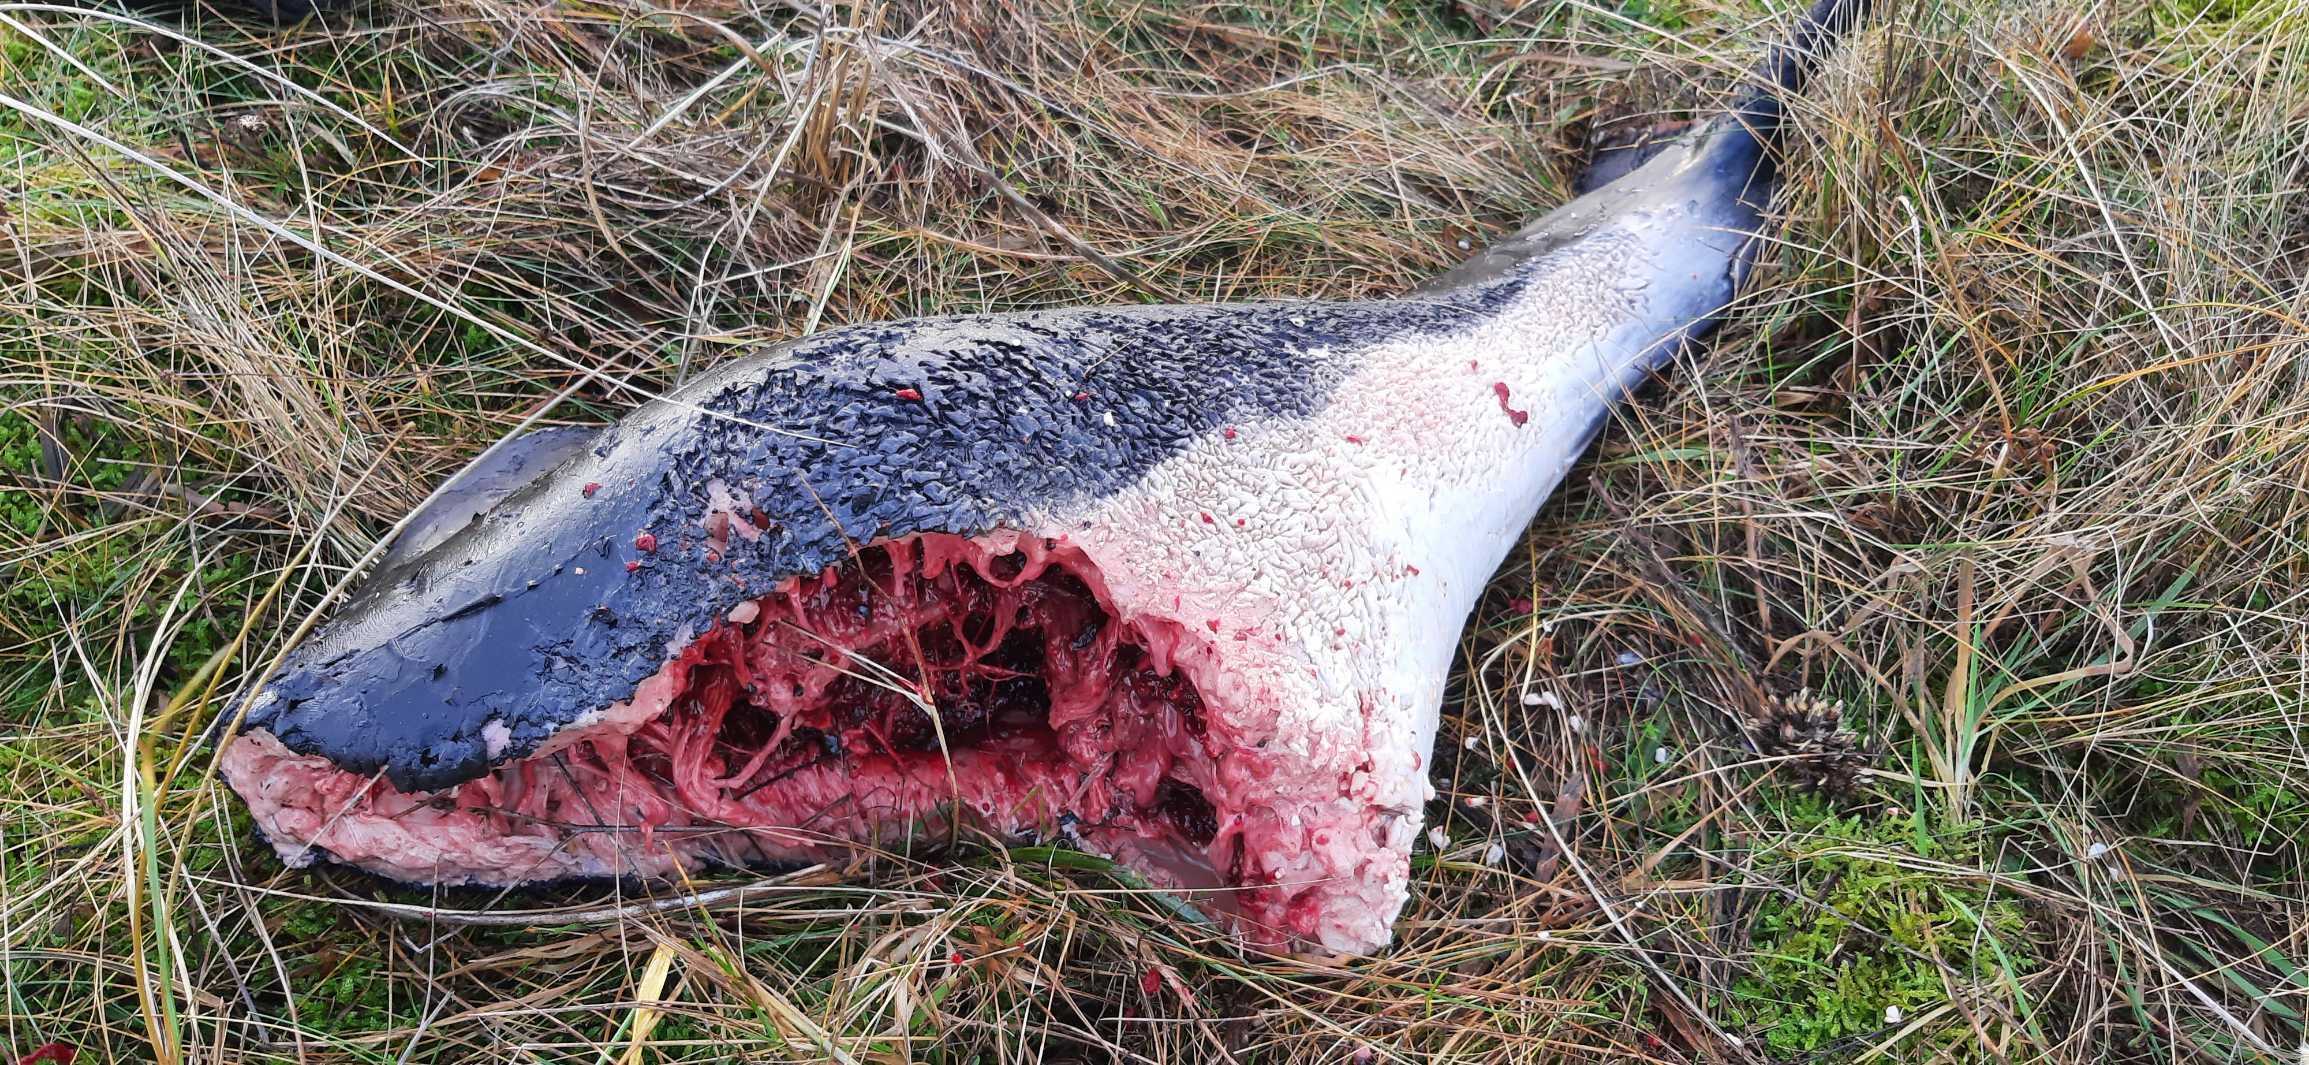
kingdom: Animalia
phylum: Chordata
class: Mammalia
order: Cetacea
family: Phocoenidae
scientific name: Phocoenidae
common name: Marsvin
